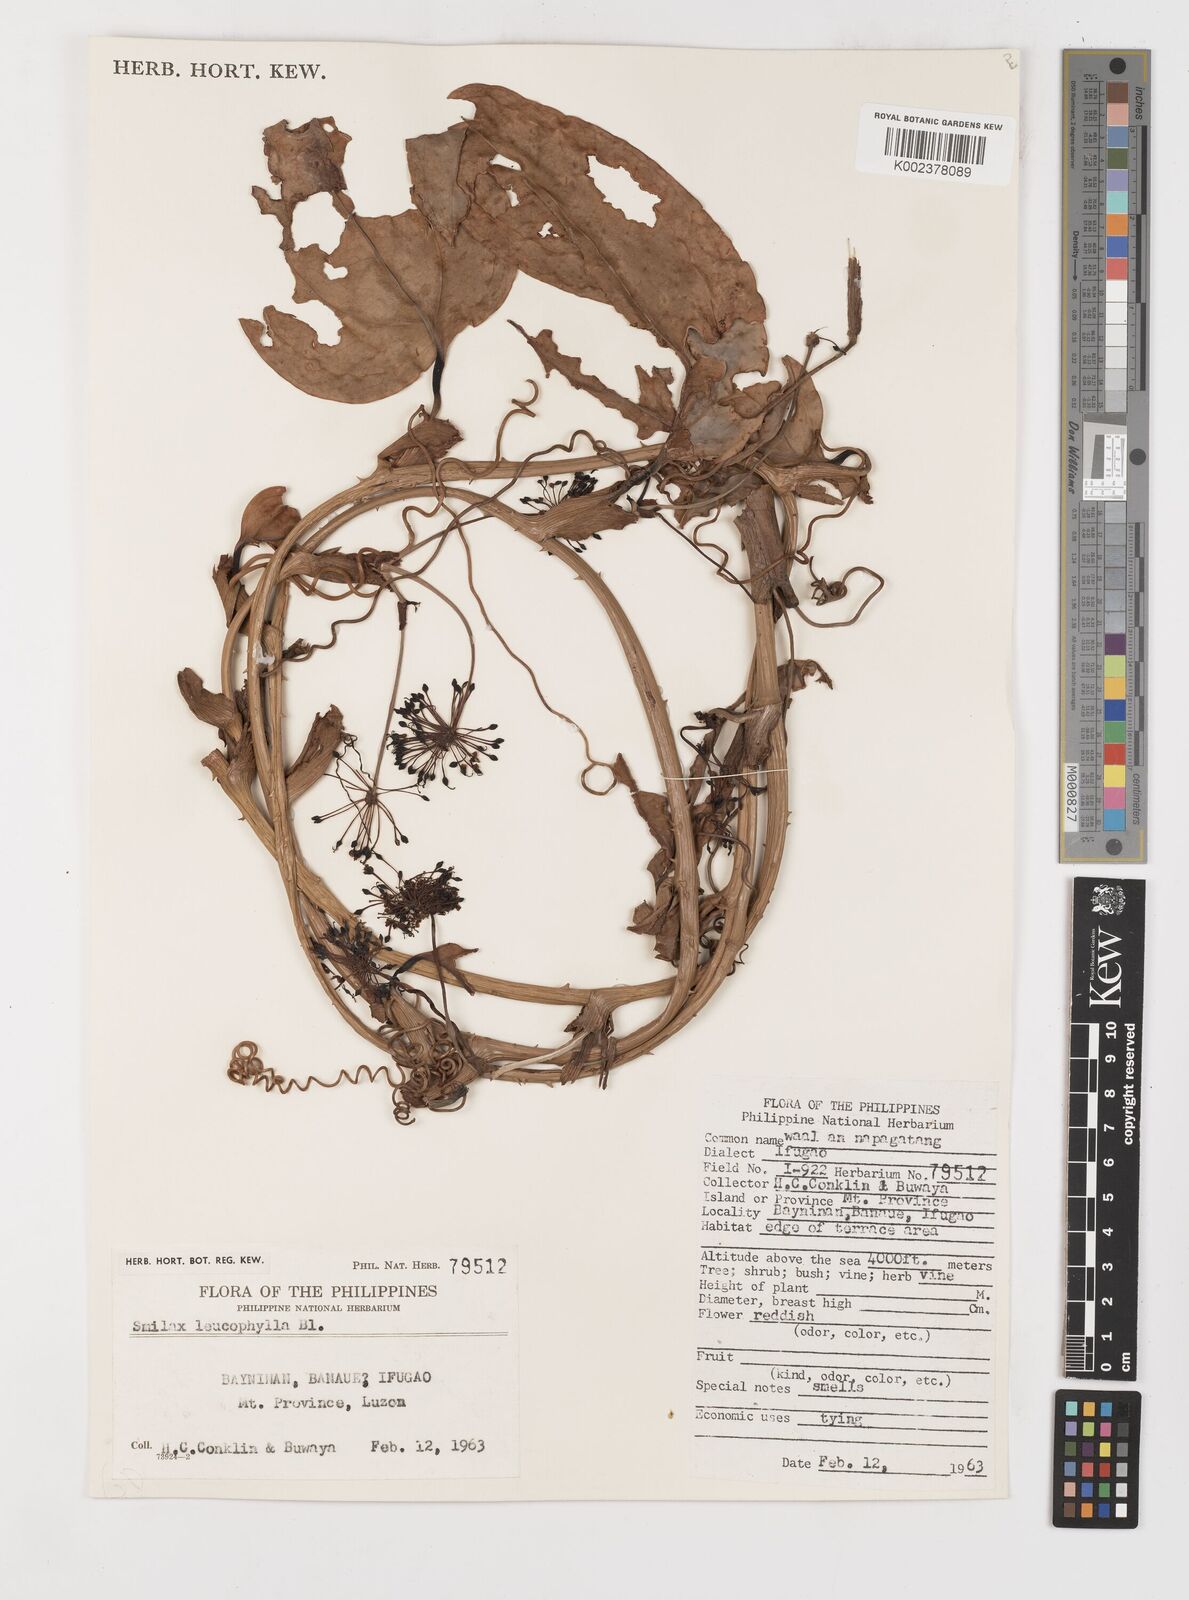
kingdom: Plantae
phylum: Tracheophyta
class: Liliopsida
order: Liliales
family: Smilacaceae
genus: Smilax
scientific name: Smilax leucophylla
